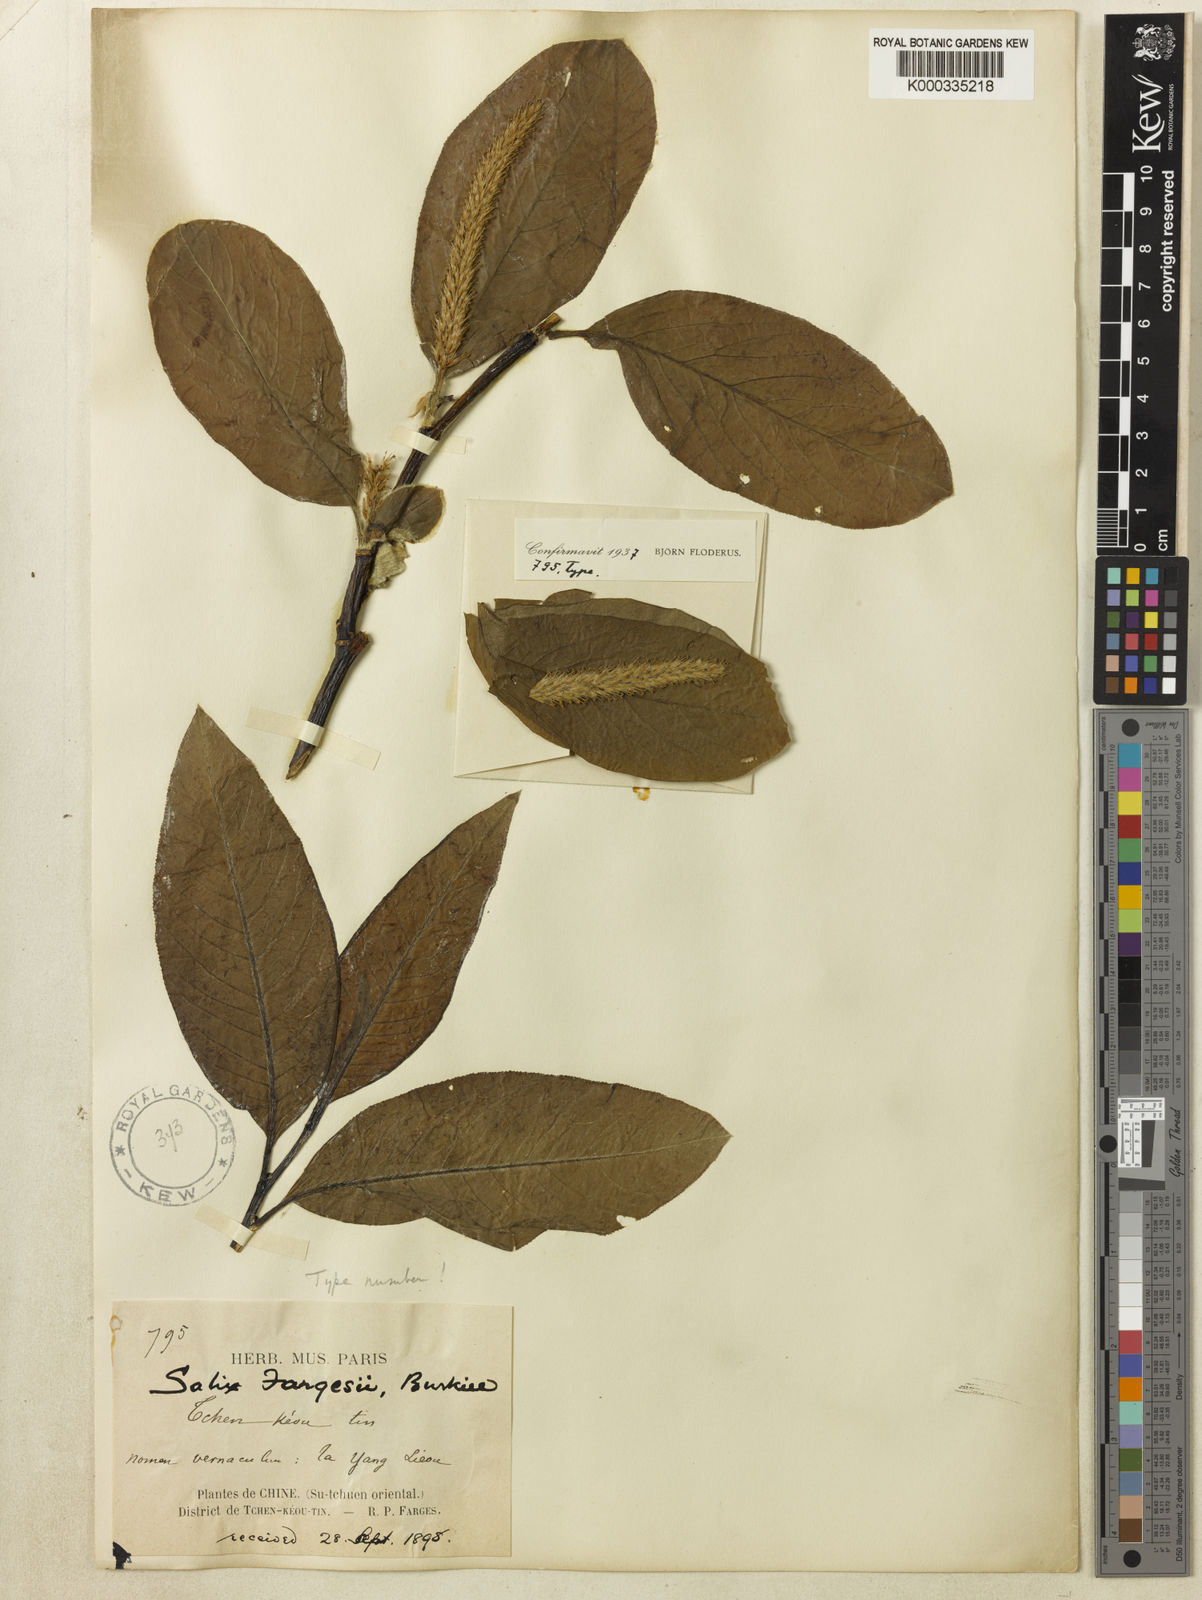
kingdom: Plantae
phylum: Tracheophyta
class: Magnoliopsida
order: Malpighiales
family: Salicaceae
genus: Salix
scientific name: Salix fargesii
